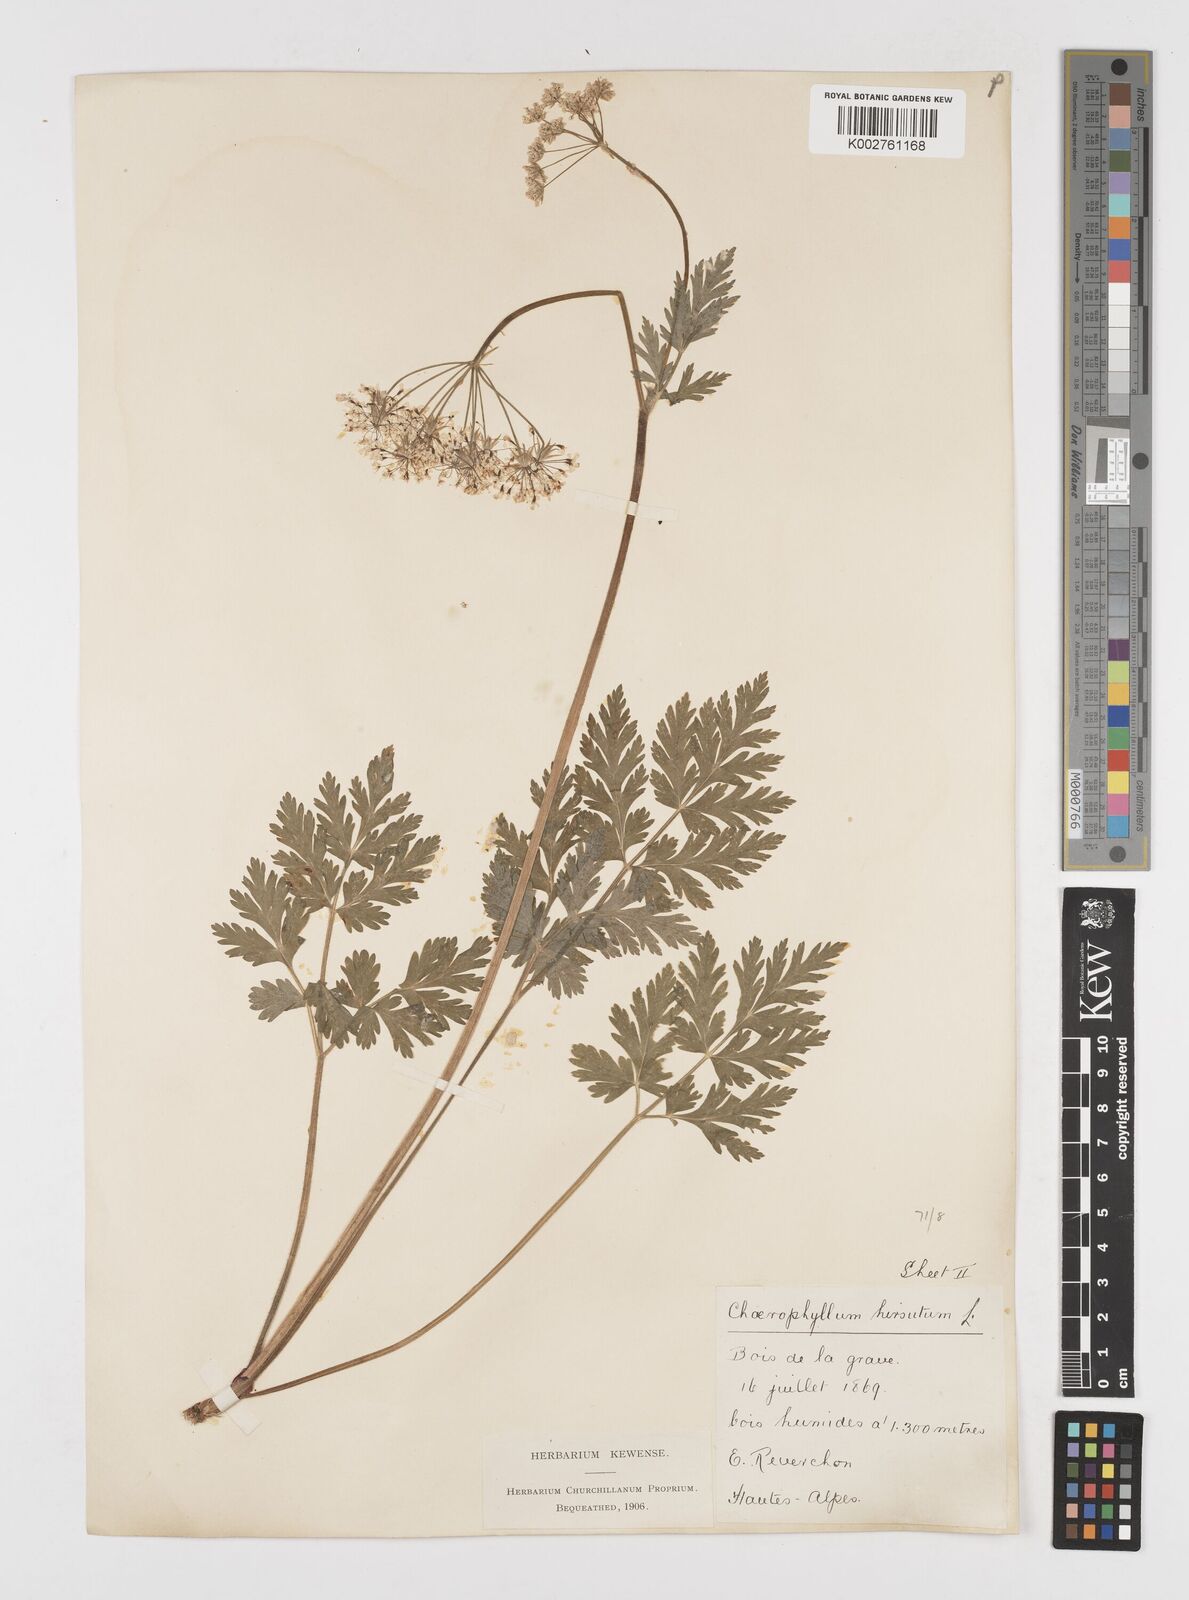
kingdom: Plantae
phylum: Tracheophyta
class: Magnoliopsida
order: Apiales
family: Apiaceae
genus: Chaerophyllum
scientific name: Chaerophyllum hirsutum
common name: Hairy chervil
